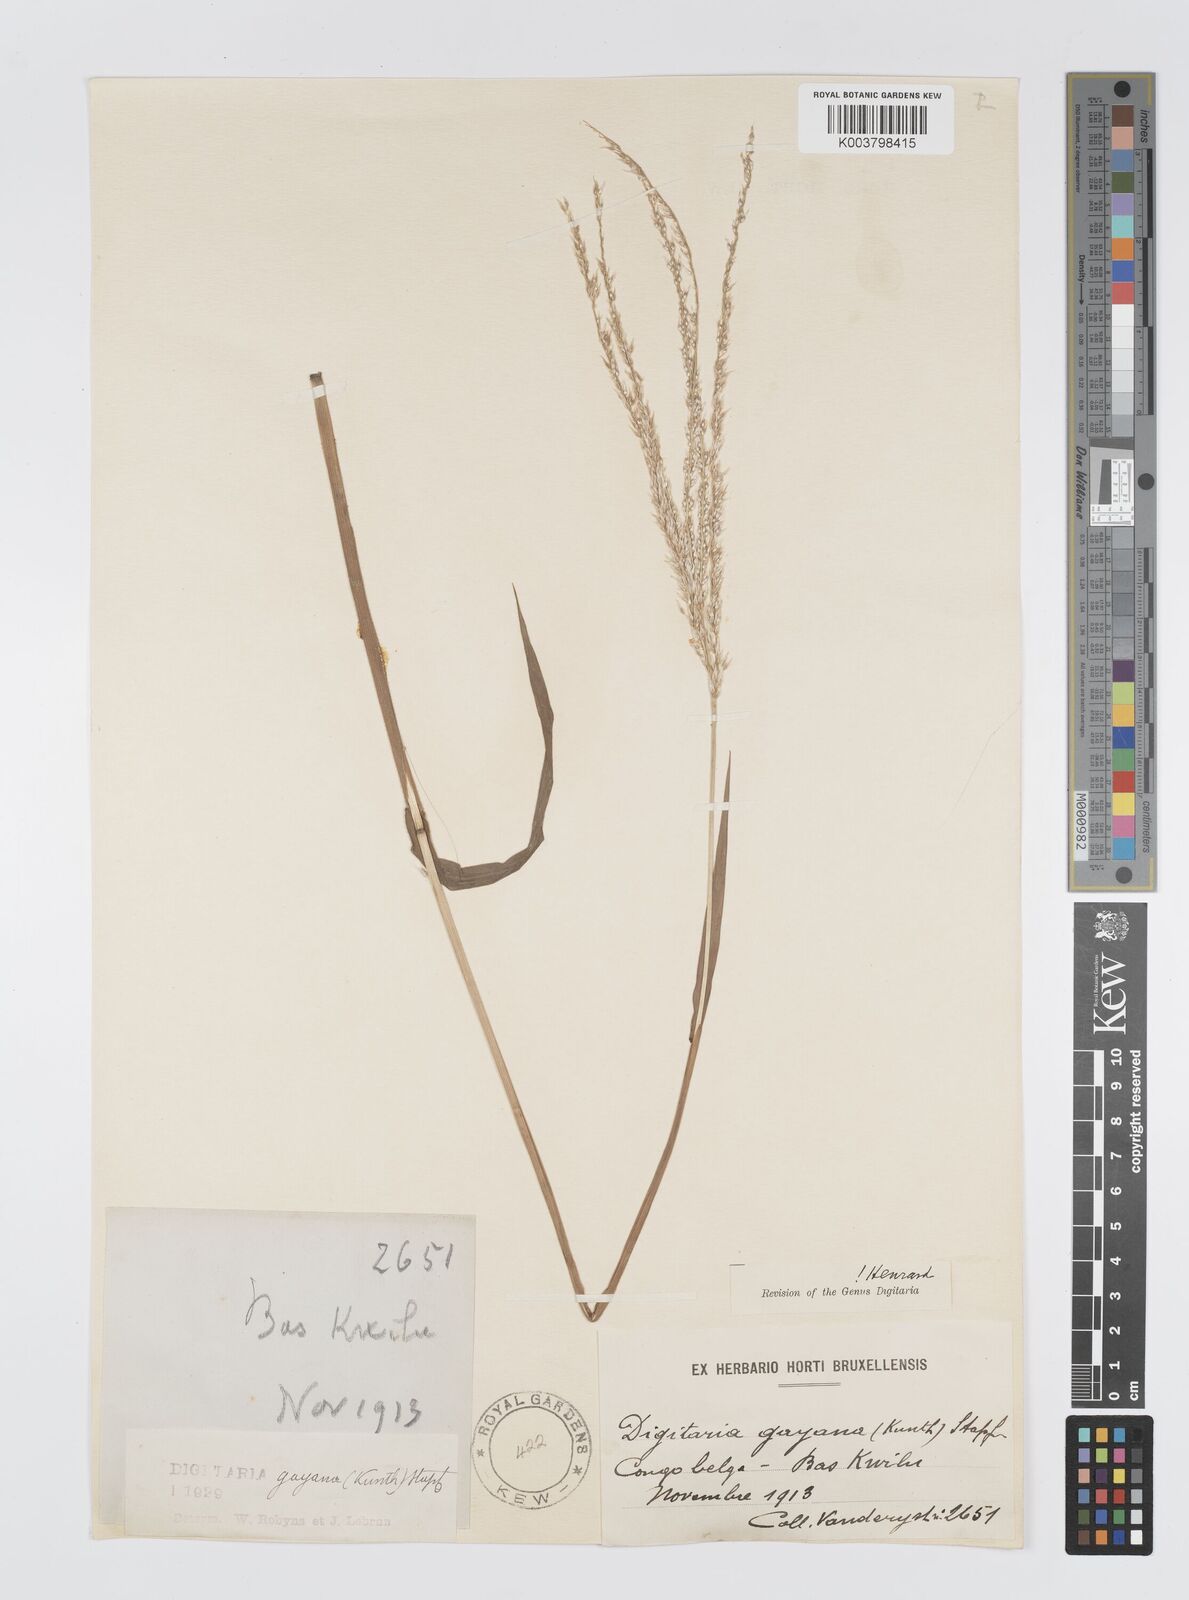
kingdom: Plantae
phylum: Tracheophyta
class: Liliopsida
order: Poales
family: Poaceae
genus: Digitaria
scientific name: Digitaria gayana
